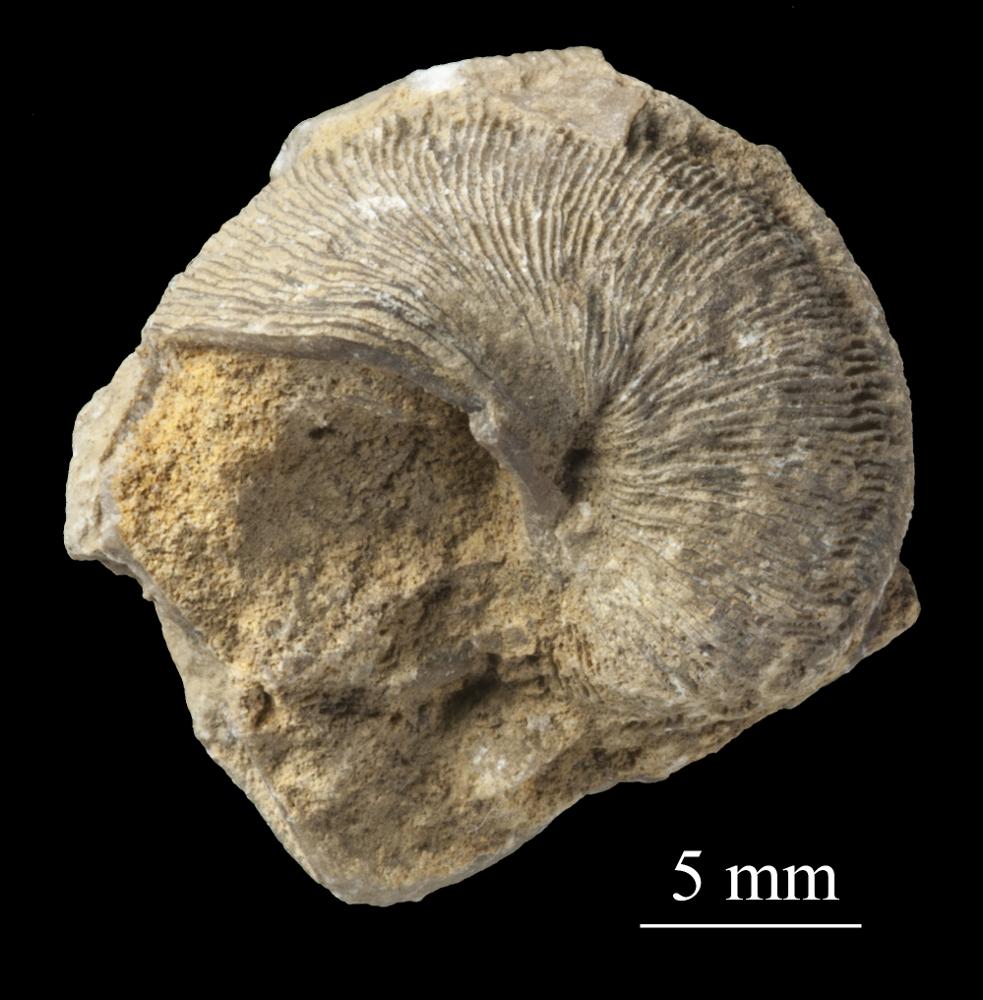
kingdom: Animalia
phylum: Mollusca
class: Gastropoda
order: Pleurotomariida
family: Phanerotrematidae
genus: Brachytomaria
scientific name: Brachytomaria nodulosa
